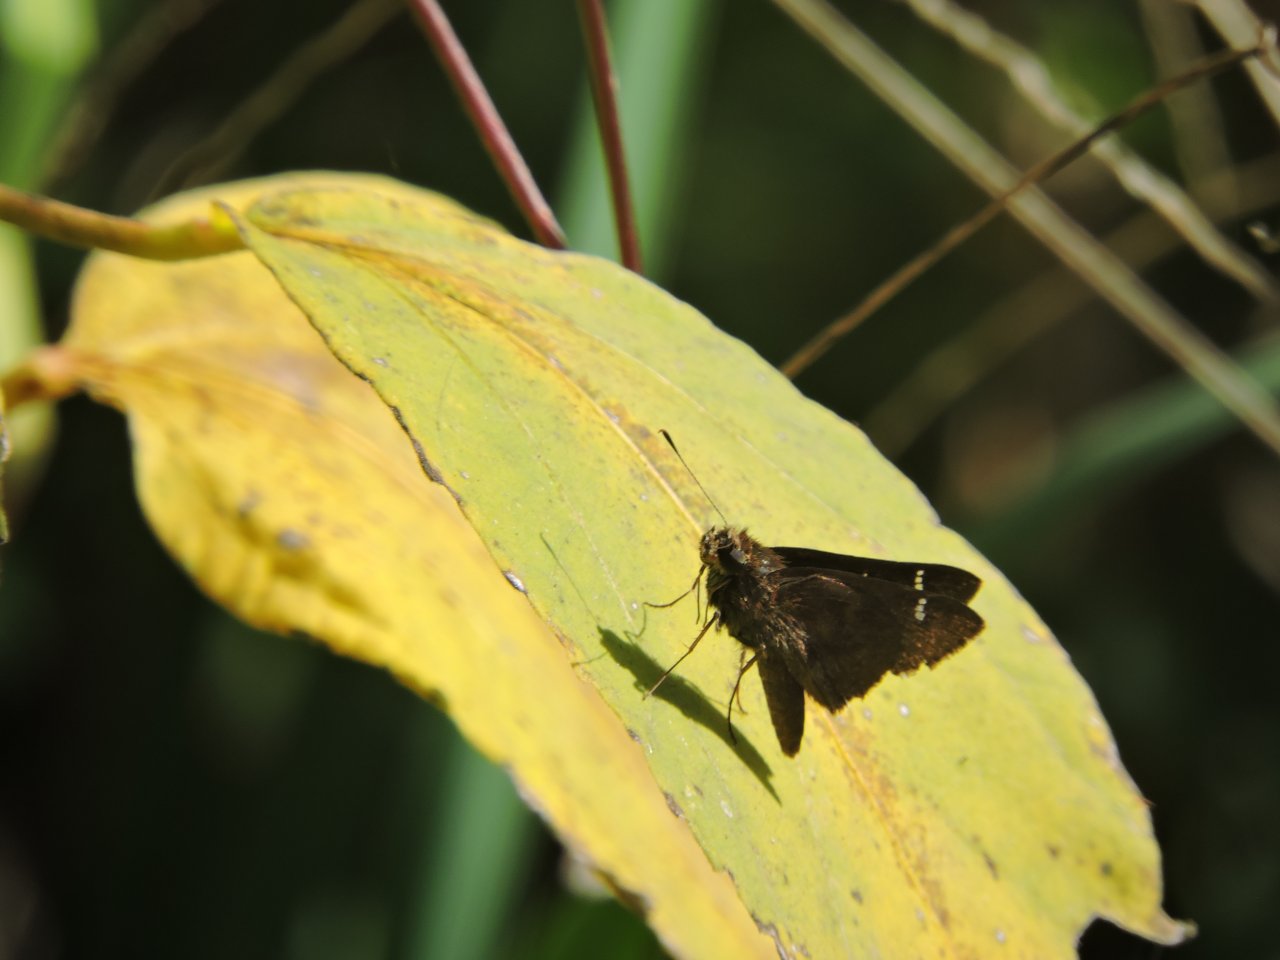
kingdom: Animalia
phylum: Arthropoda
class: Insecta
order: Lepidoptera
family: Hesperiidae
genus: Lerema
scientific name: Lerema accius
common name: Clouded Skipper
